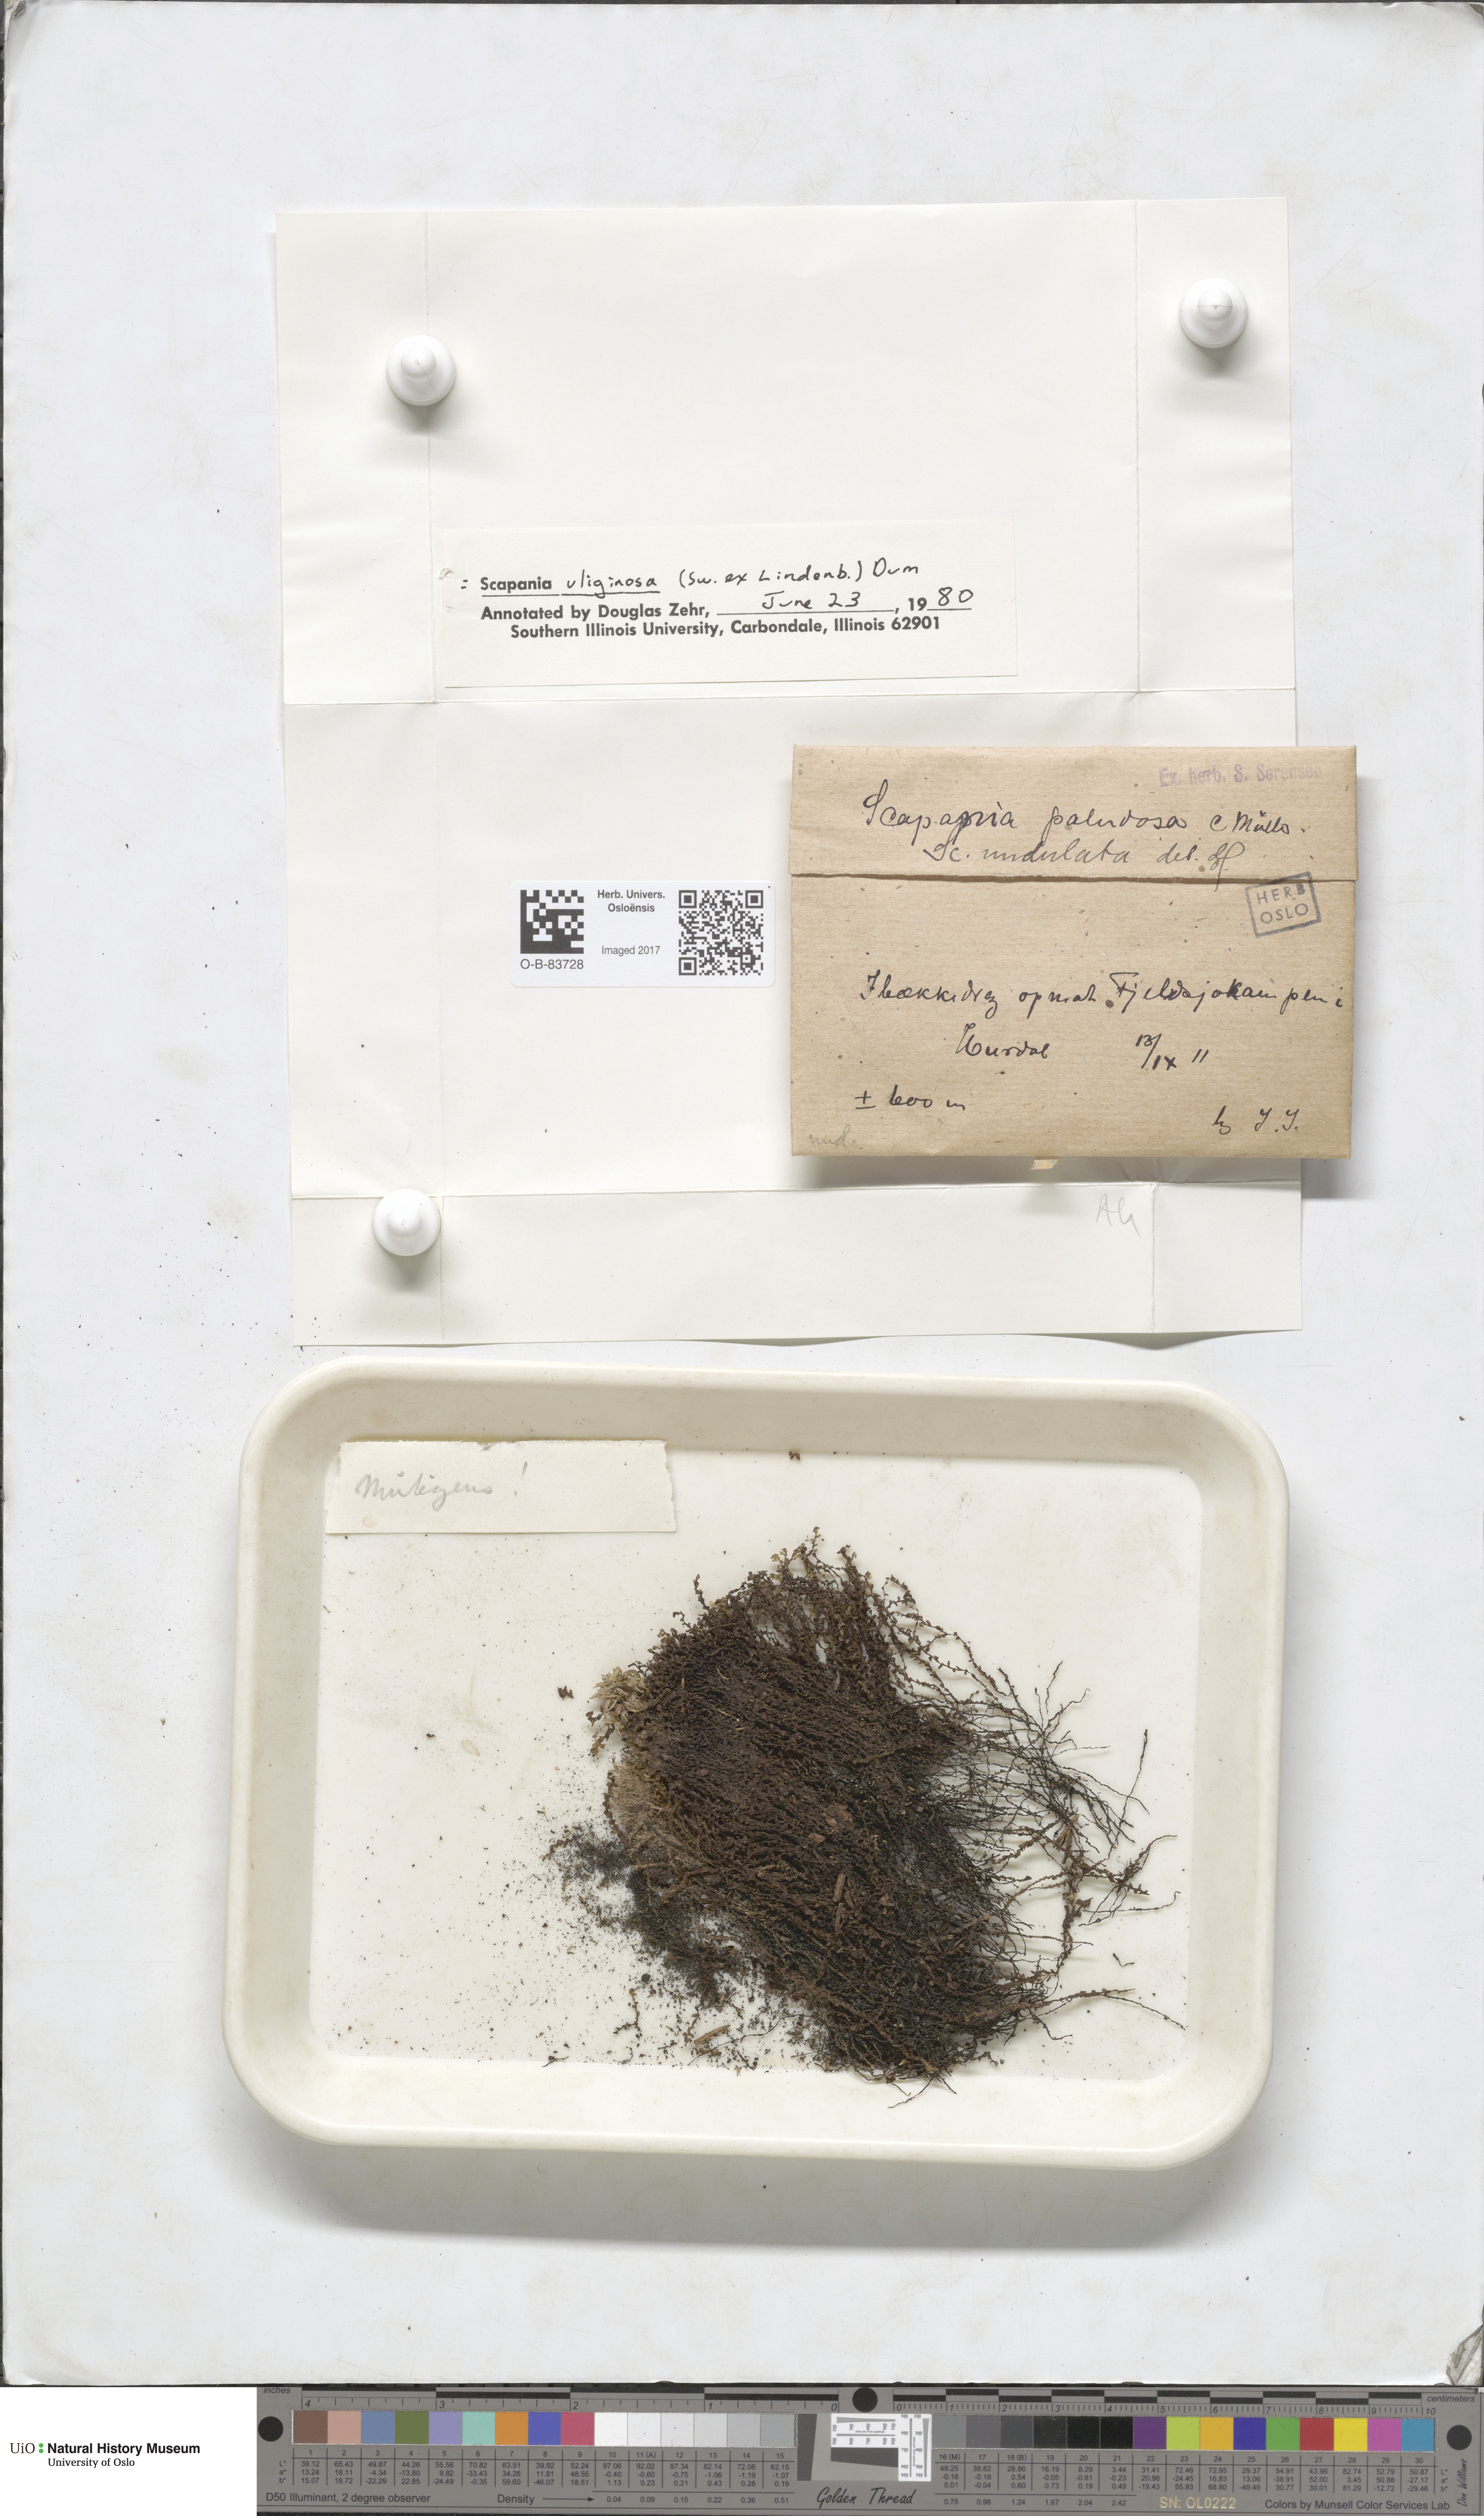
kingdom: Plantae
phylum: Marchantiophyta
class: Jungermanniopsida
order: Jungermanniales
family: Scapaniaceae
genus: Scapania
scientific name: Scapania uliginosa
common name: Marsh earwort
